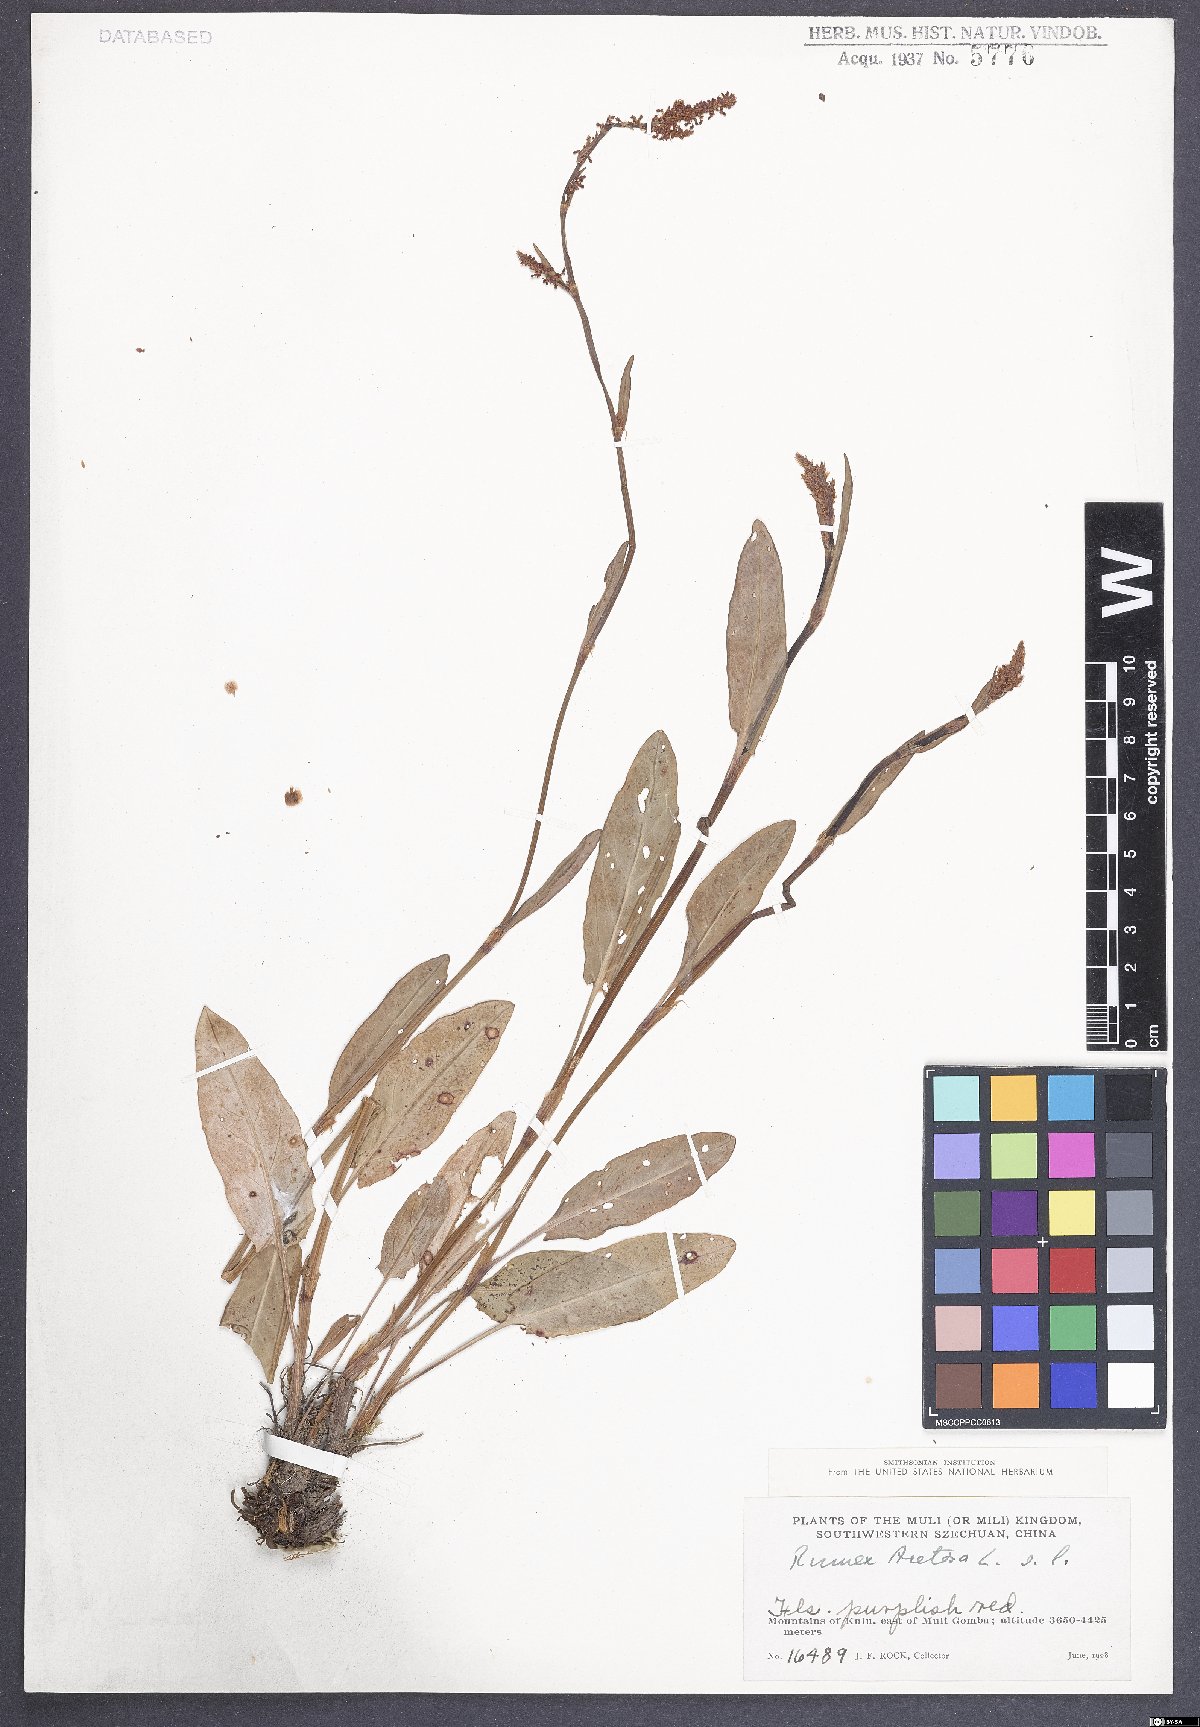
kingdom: Plantae
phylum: Tracheophyta
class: Magnoliopsida
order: Caryophyllales
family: Polygonaceae
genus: Rumex
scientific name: Rumex acetosa
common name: Garden sorrel
